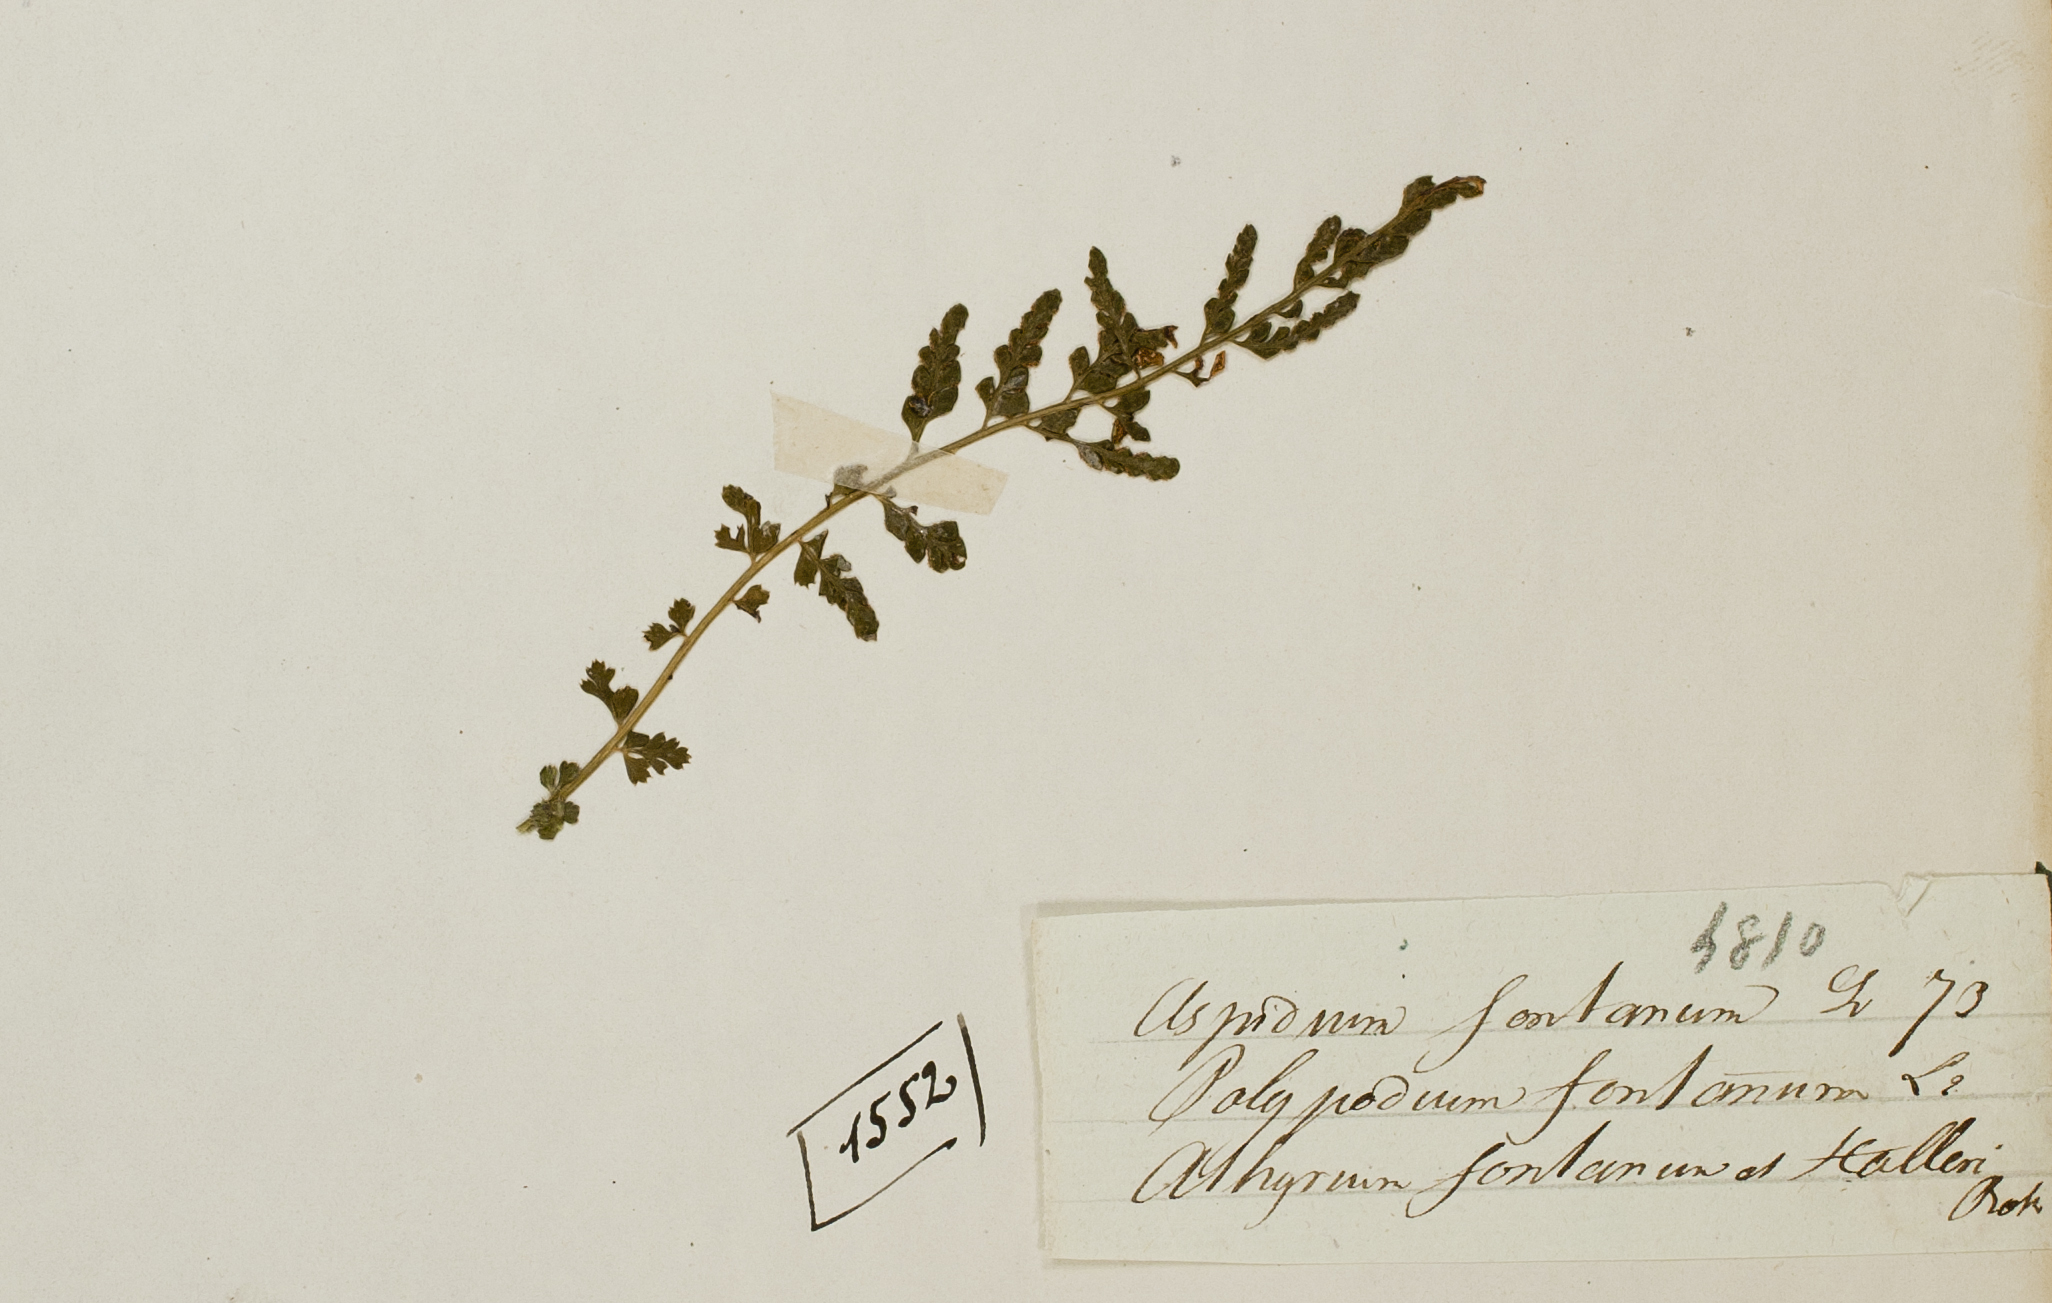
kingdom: Plantae
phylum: Tracheophyta
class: Polypodiopsida
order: Polypodiales
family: Aspleniaceae
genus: Asplenium
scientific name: Asplenium fontanum
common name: Fountain spleenwort
